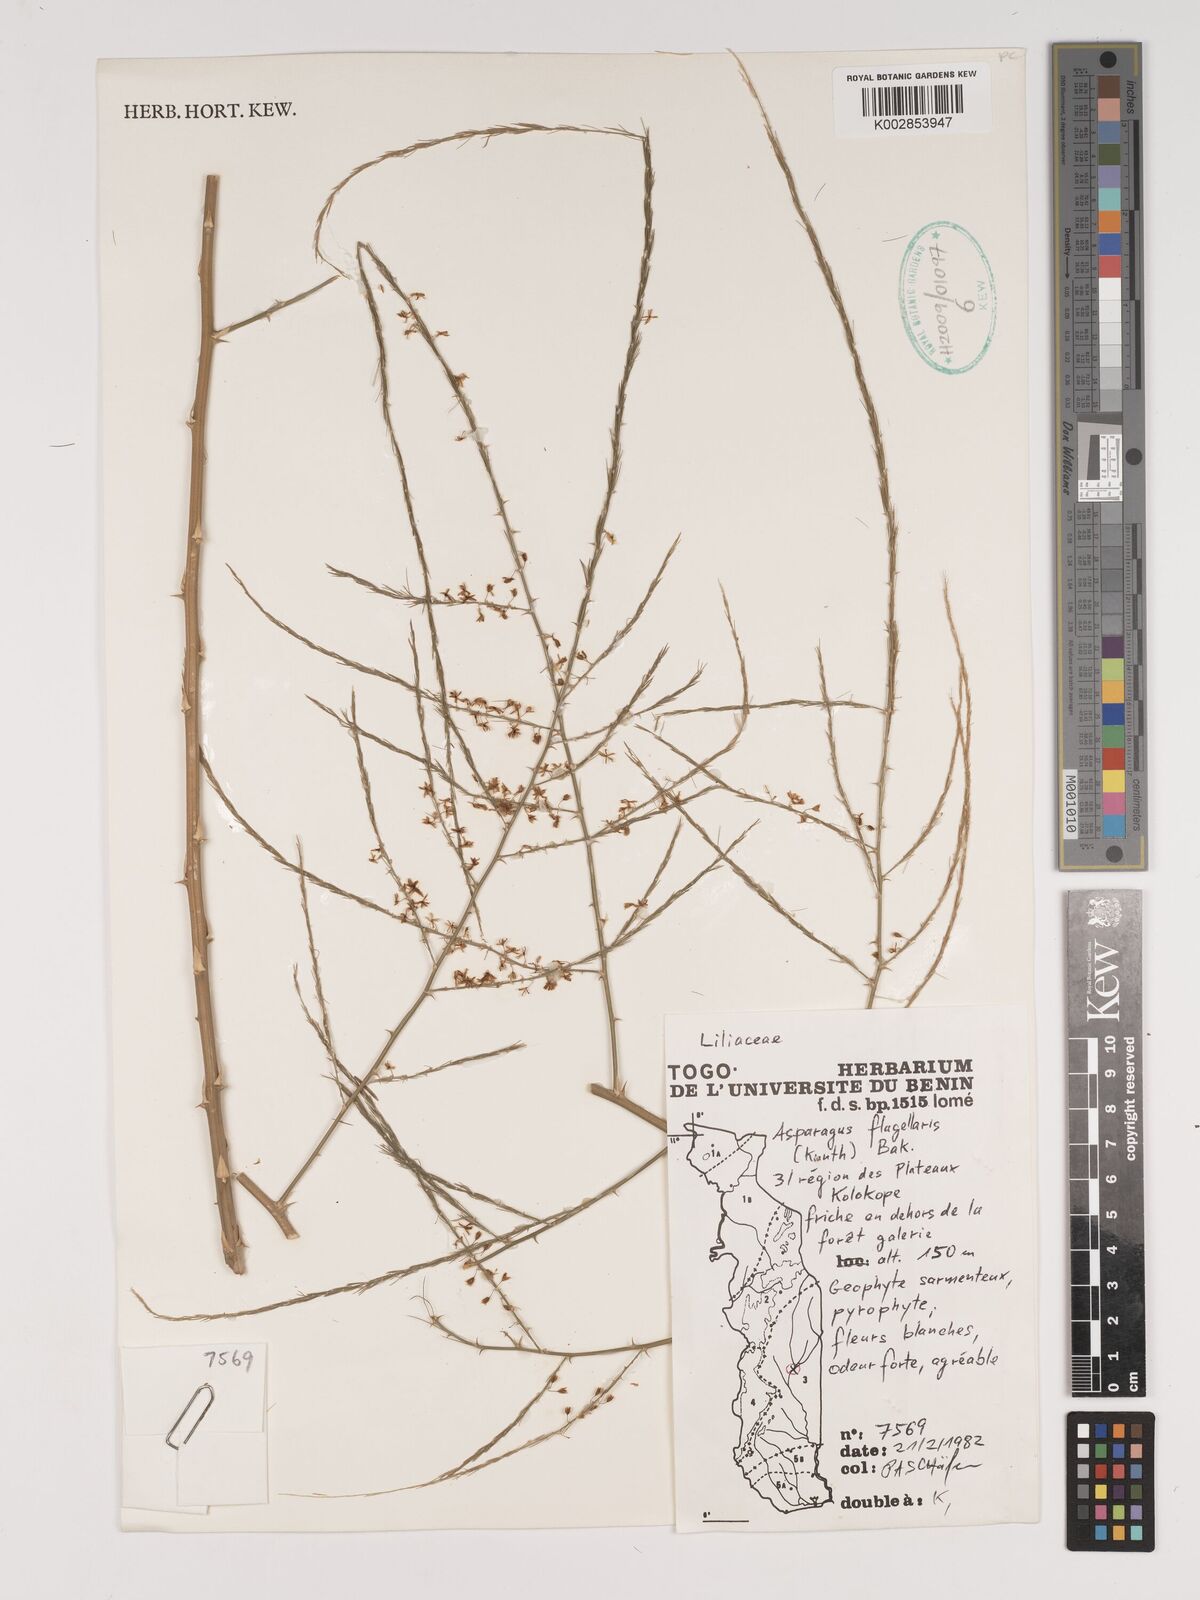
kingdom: Plantae
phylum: Tracheophyta
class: Liliopsida
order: Asparagales
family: Asparagaceae
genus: Asparagus
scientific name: Asparagus flagellaris
